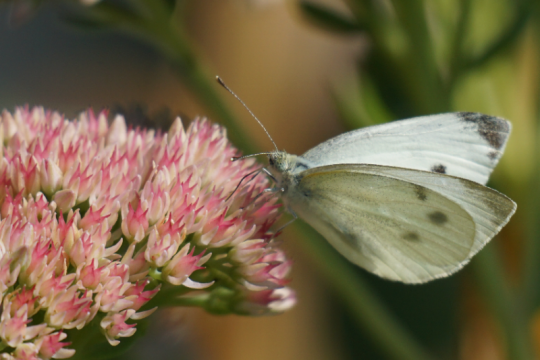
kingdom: Animalia
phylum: Arthropoda
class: Insecta
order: Lepidoptera
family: Pieridae
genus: Pieris
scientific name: Pieris rapae
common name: Cabbage White
